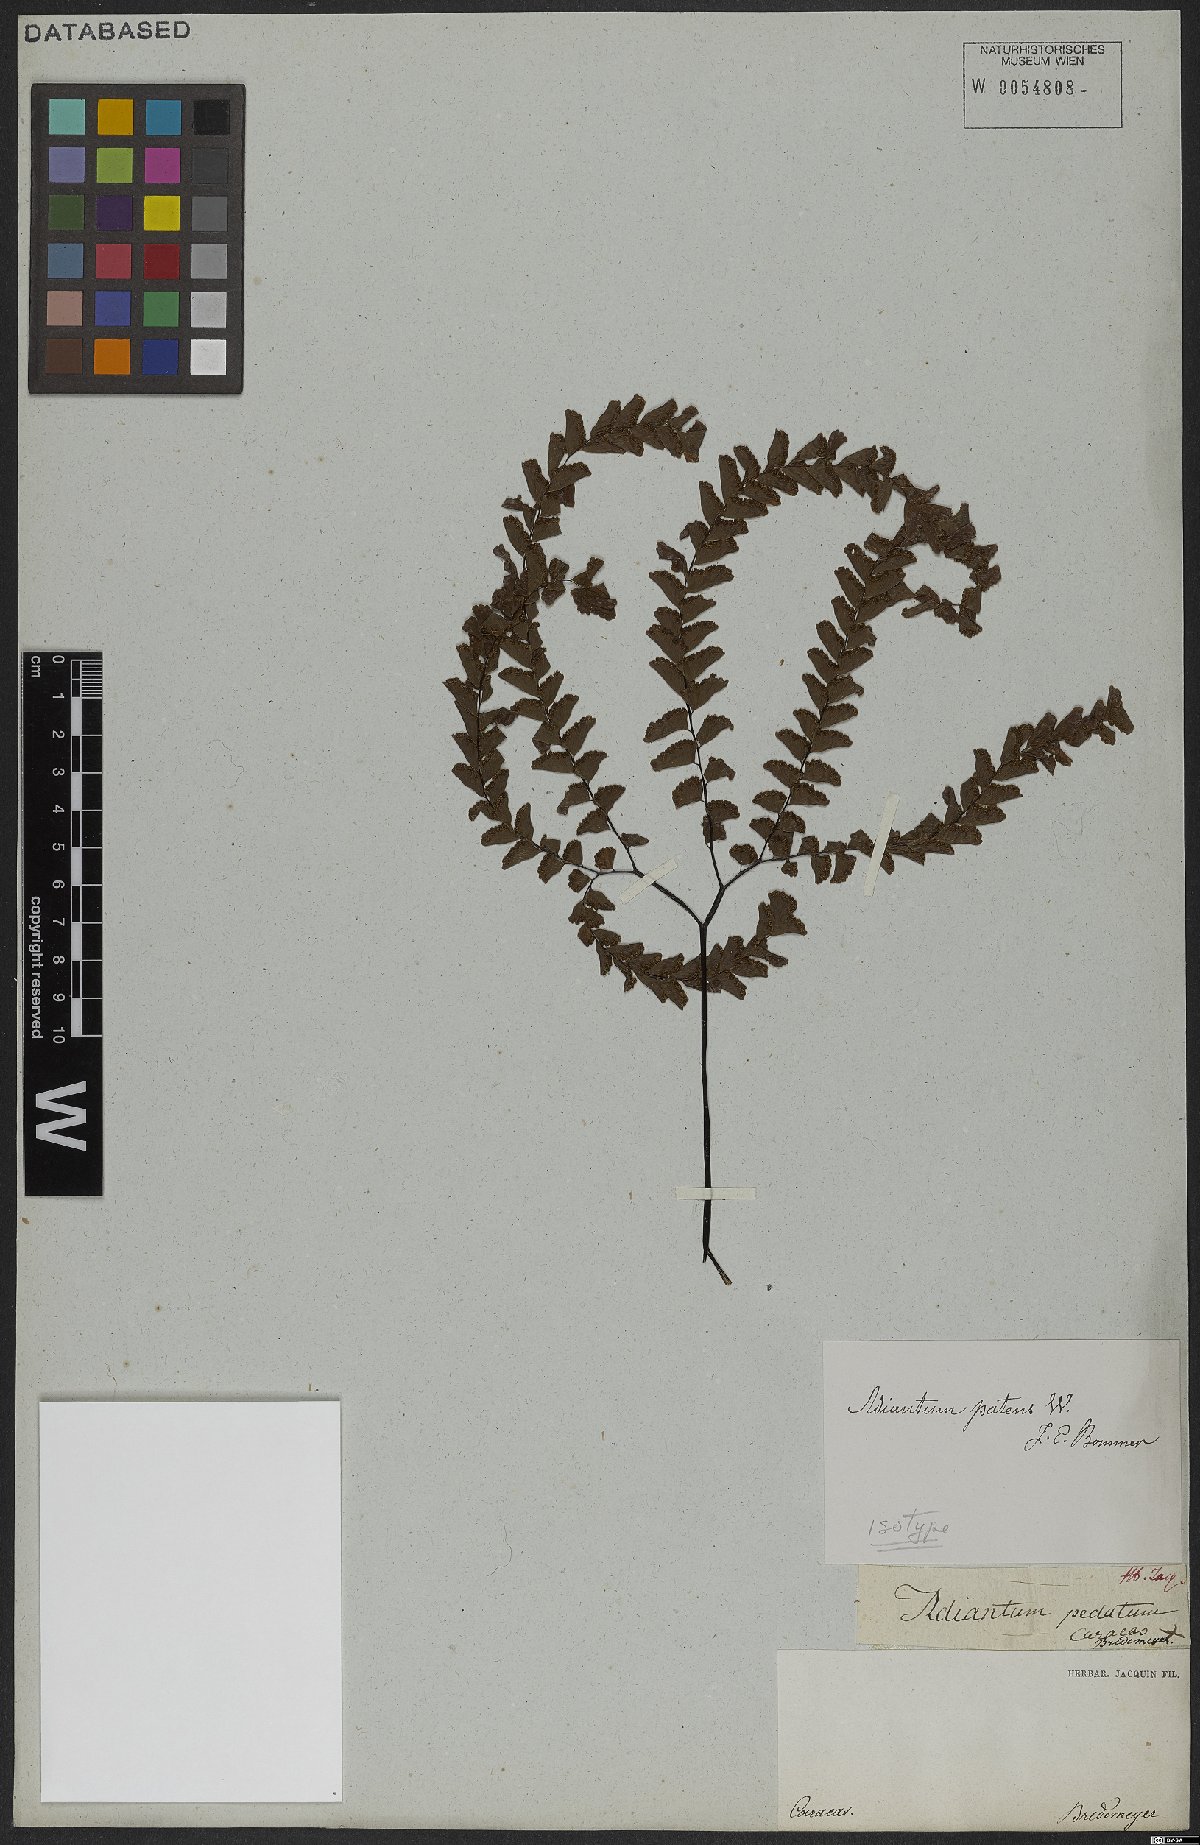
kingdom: Plantae
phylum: Tracheophyta
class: Polypodiopsida
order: Polypodiales
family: Pteridaceae
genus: Adiantum
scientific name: Adiantum patens
